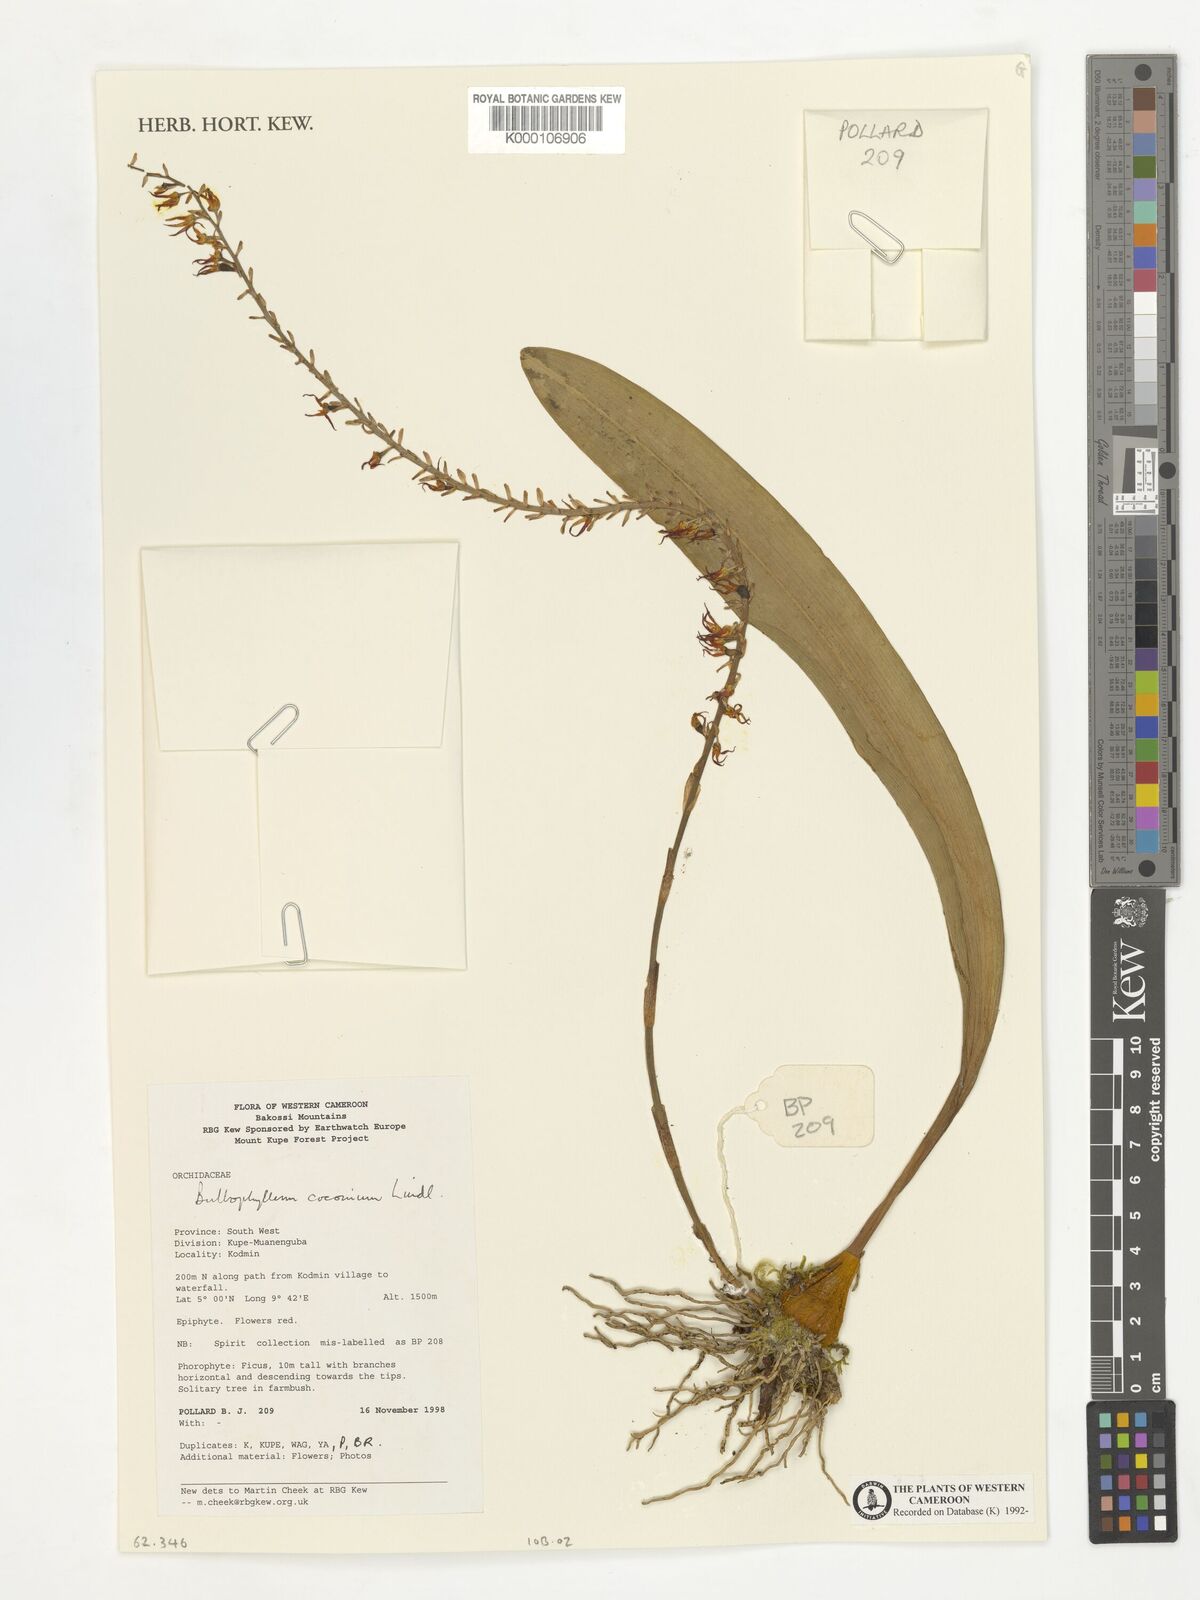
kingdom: Plantae
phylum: Tracheophyta
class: Liliopsida
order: Asparagales
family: Orchidaceae
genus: Bulbophyllum
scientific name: Bulbophyllum cocoinum
